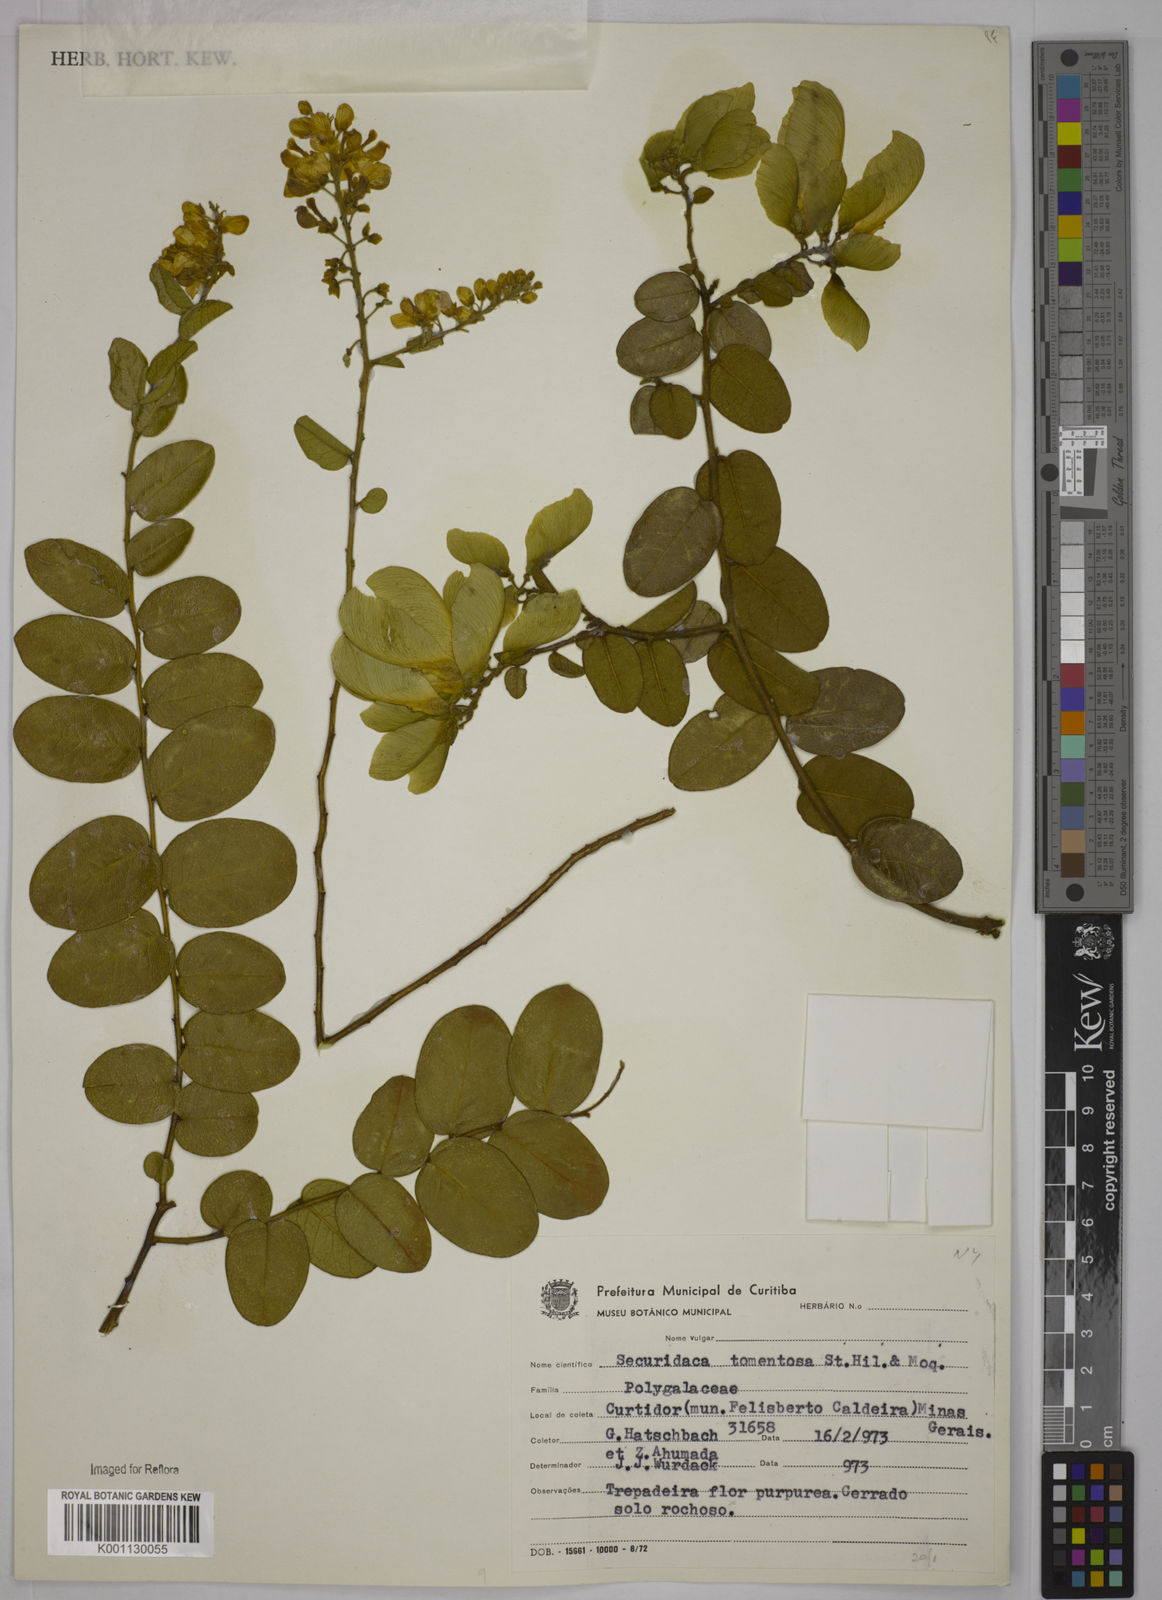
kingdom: Plantae
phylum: Tracheophyta
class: Magnoliopsida
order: Fabales
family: Polygalaceae
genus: Securidaca
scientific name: Securidaca tomentosa
